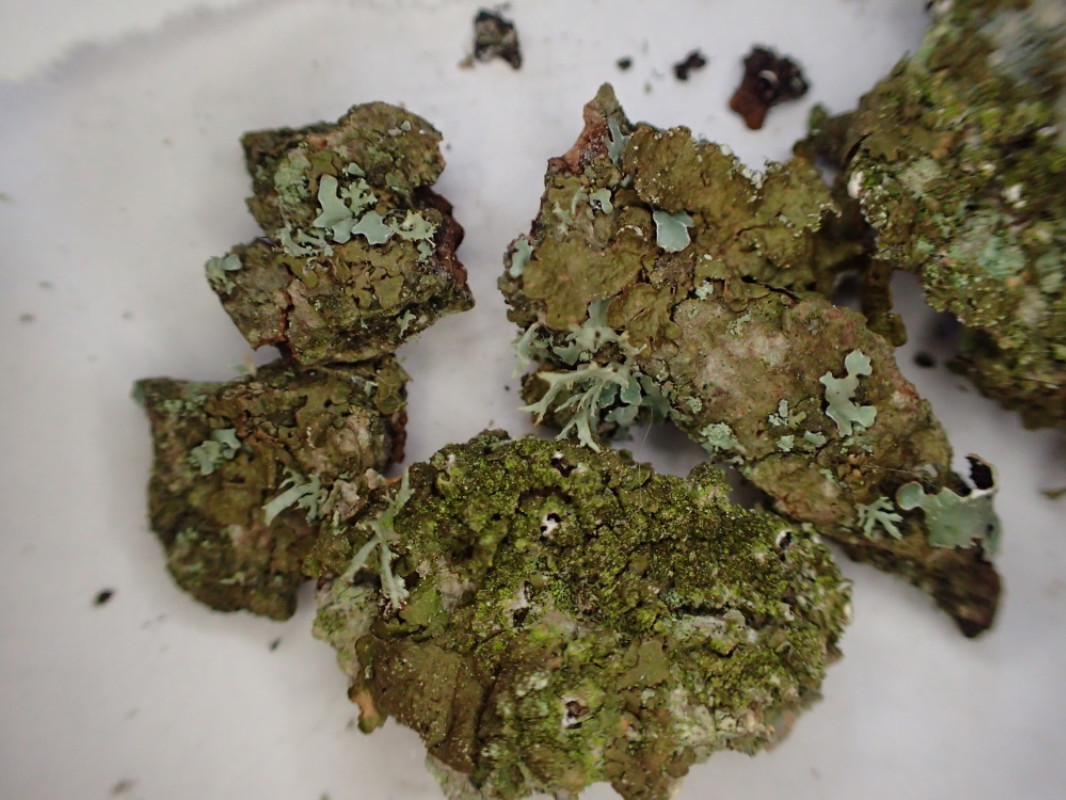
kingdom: Fungi
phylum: Ascomycota
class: Lecanoromycetes
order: Lecanorales
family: Parmeliaceae
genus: Melanelixia
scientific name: Melanelixia subaurifera
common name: guldpudret skållav
